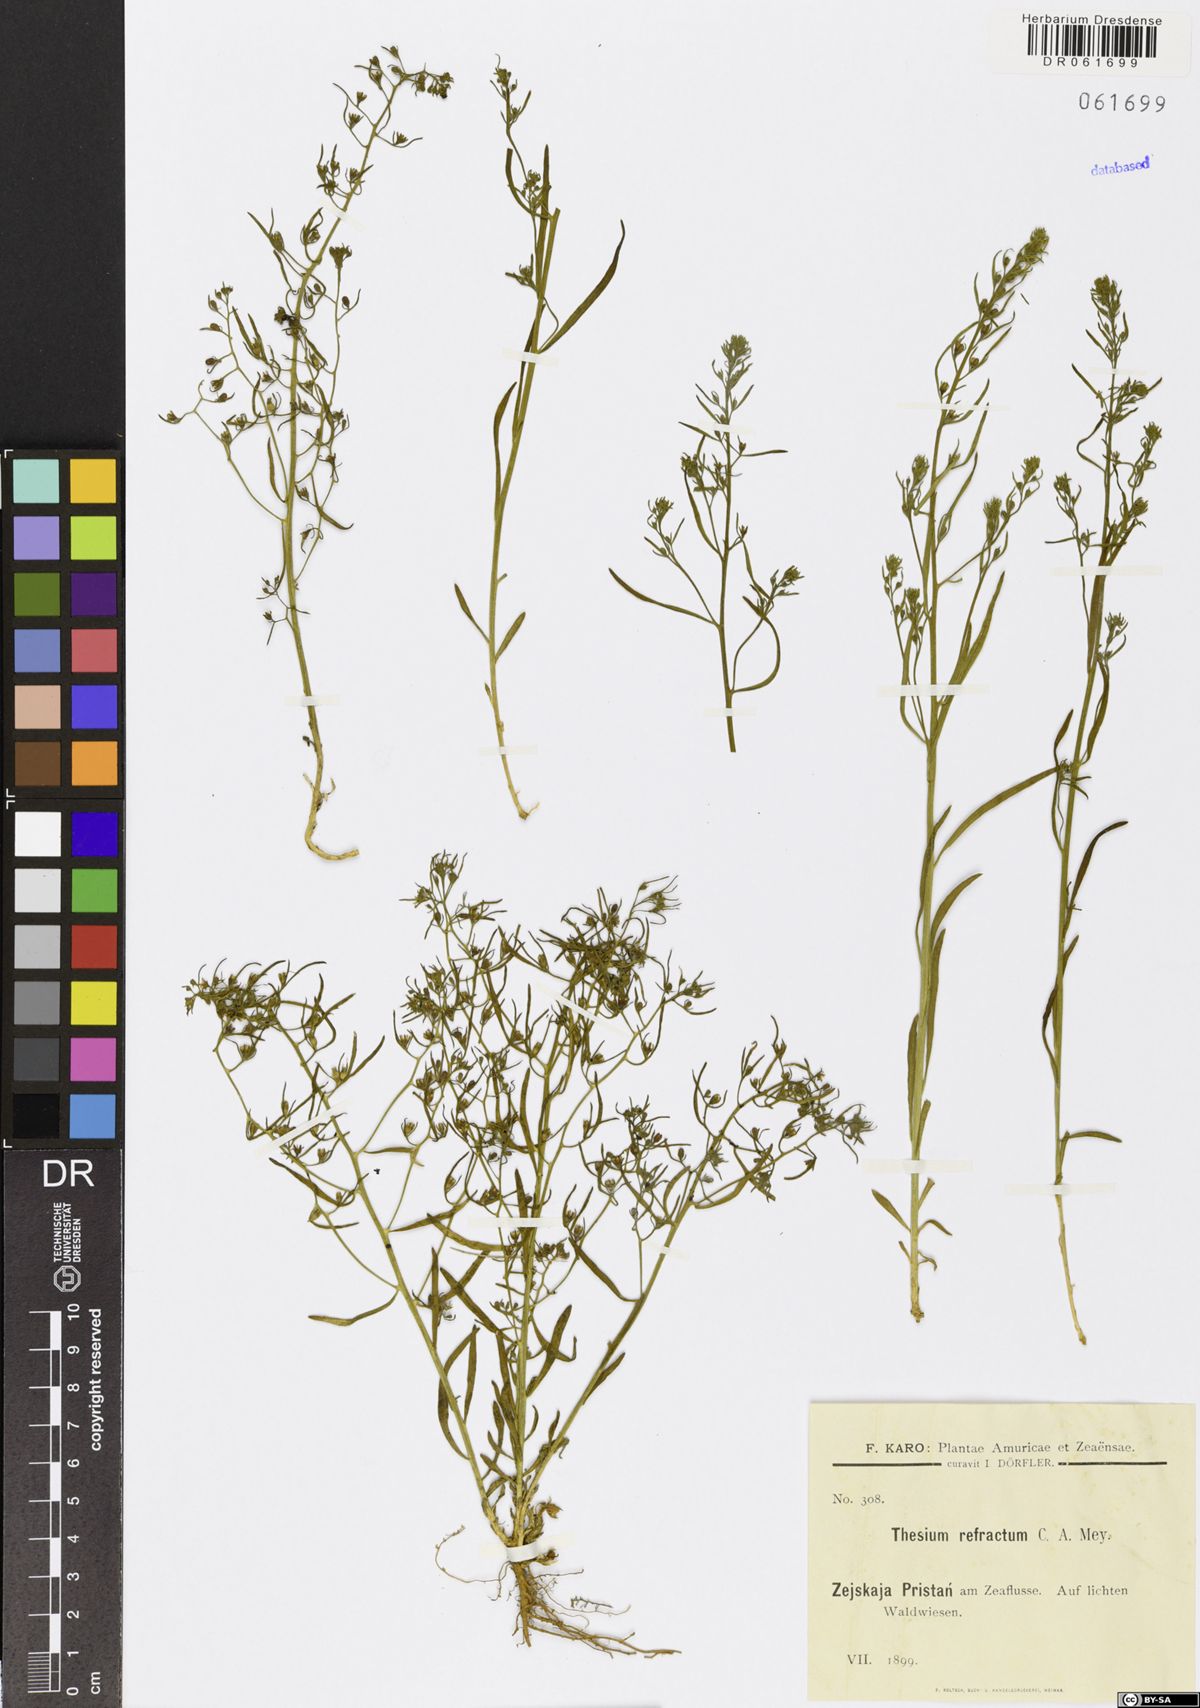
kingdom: Plantae
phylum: Tracheophyta
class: Magnoliopsida
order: Santalales
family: Thesiaceae
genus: Thesium
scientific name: Thesium refractum
